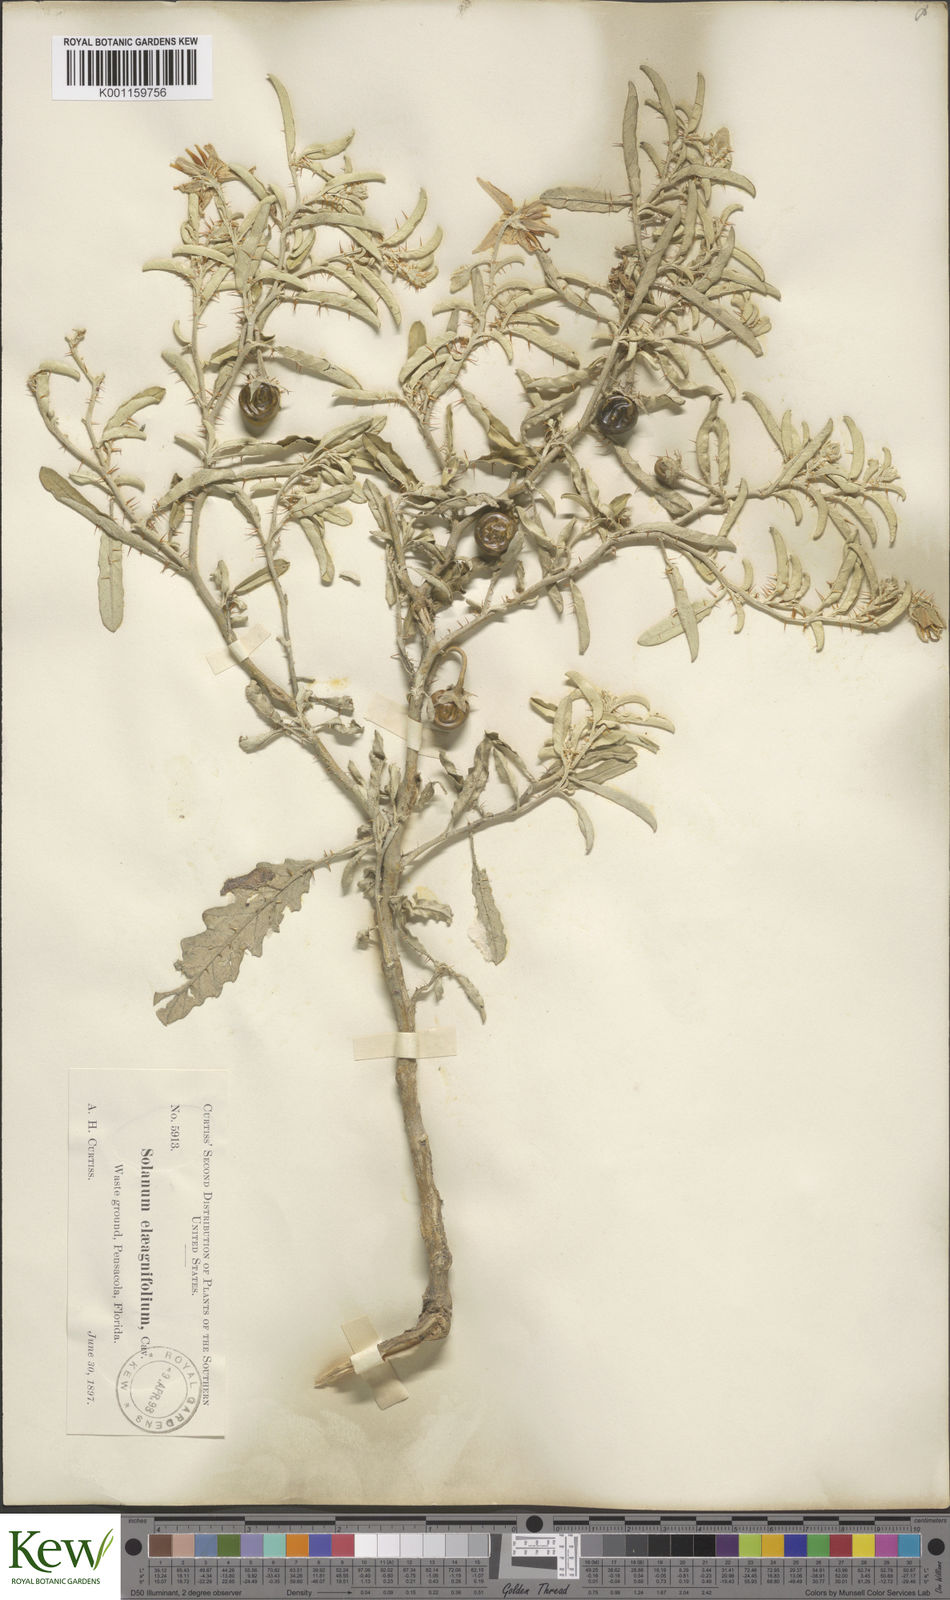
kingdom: Plantae
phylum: Tracheophyta
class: Magnoliopsida
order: Solanales
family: Solanaceae
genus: Solanum
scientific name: Solanum
